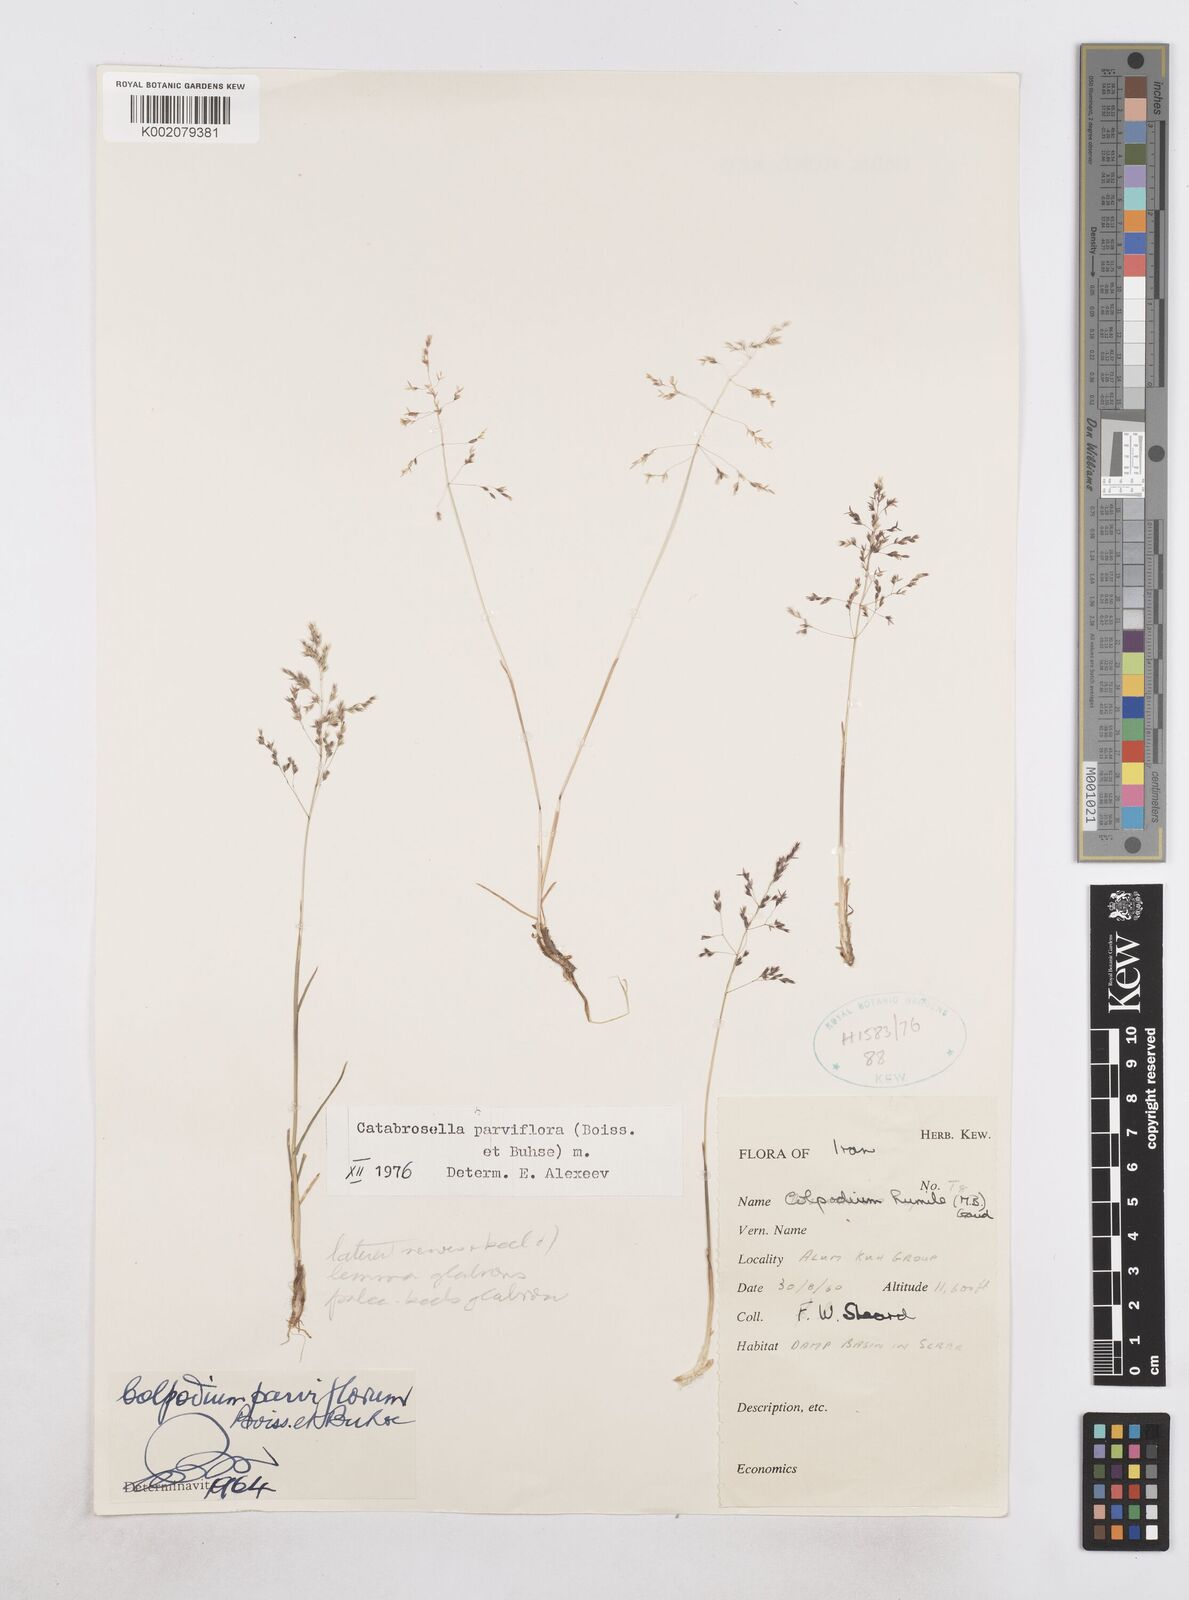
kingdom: Plantae
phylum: Tracheophyta
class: Liliopsida
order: Poales
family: Poaceae
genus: Catabrosella
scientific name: Catabrosella humilis
